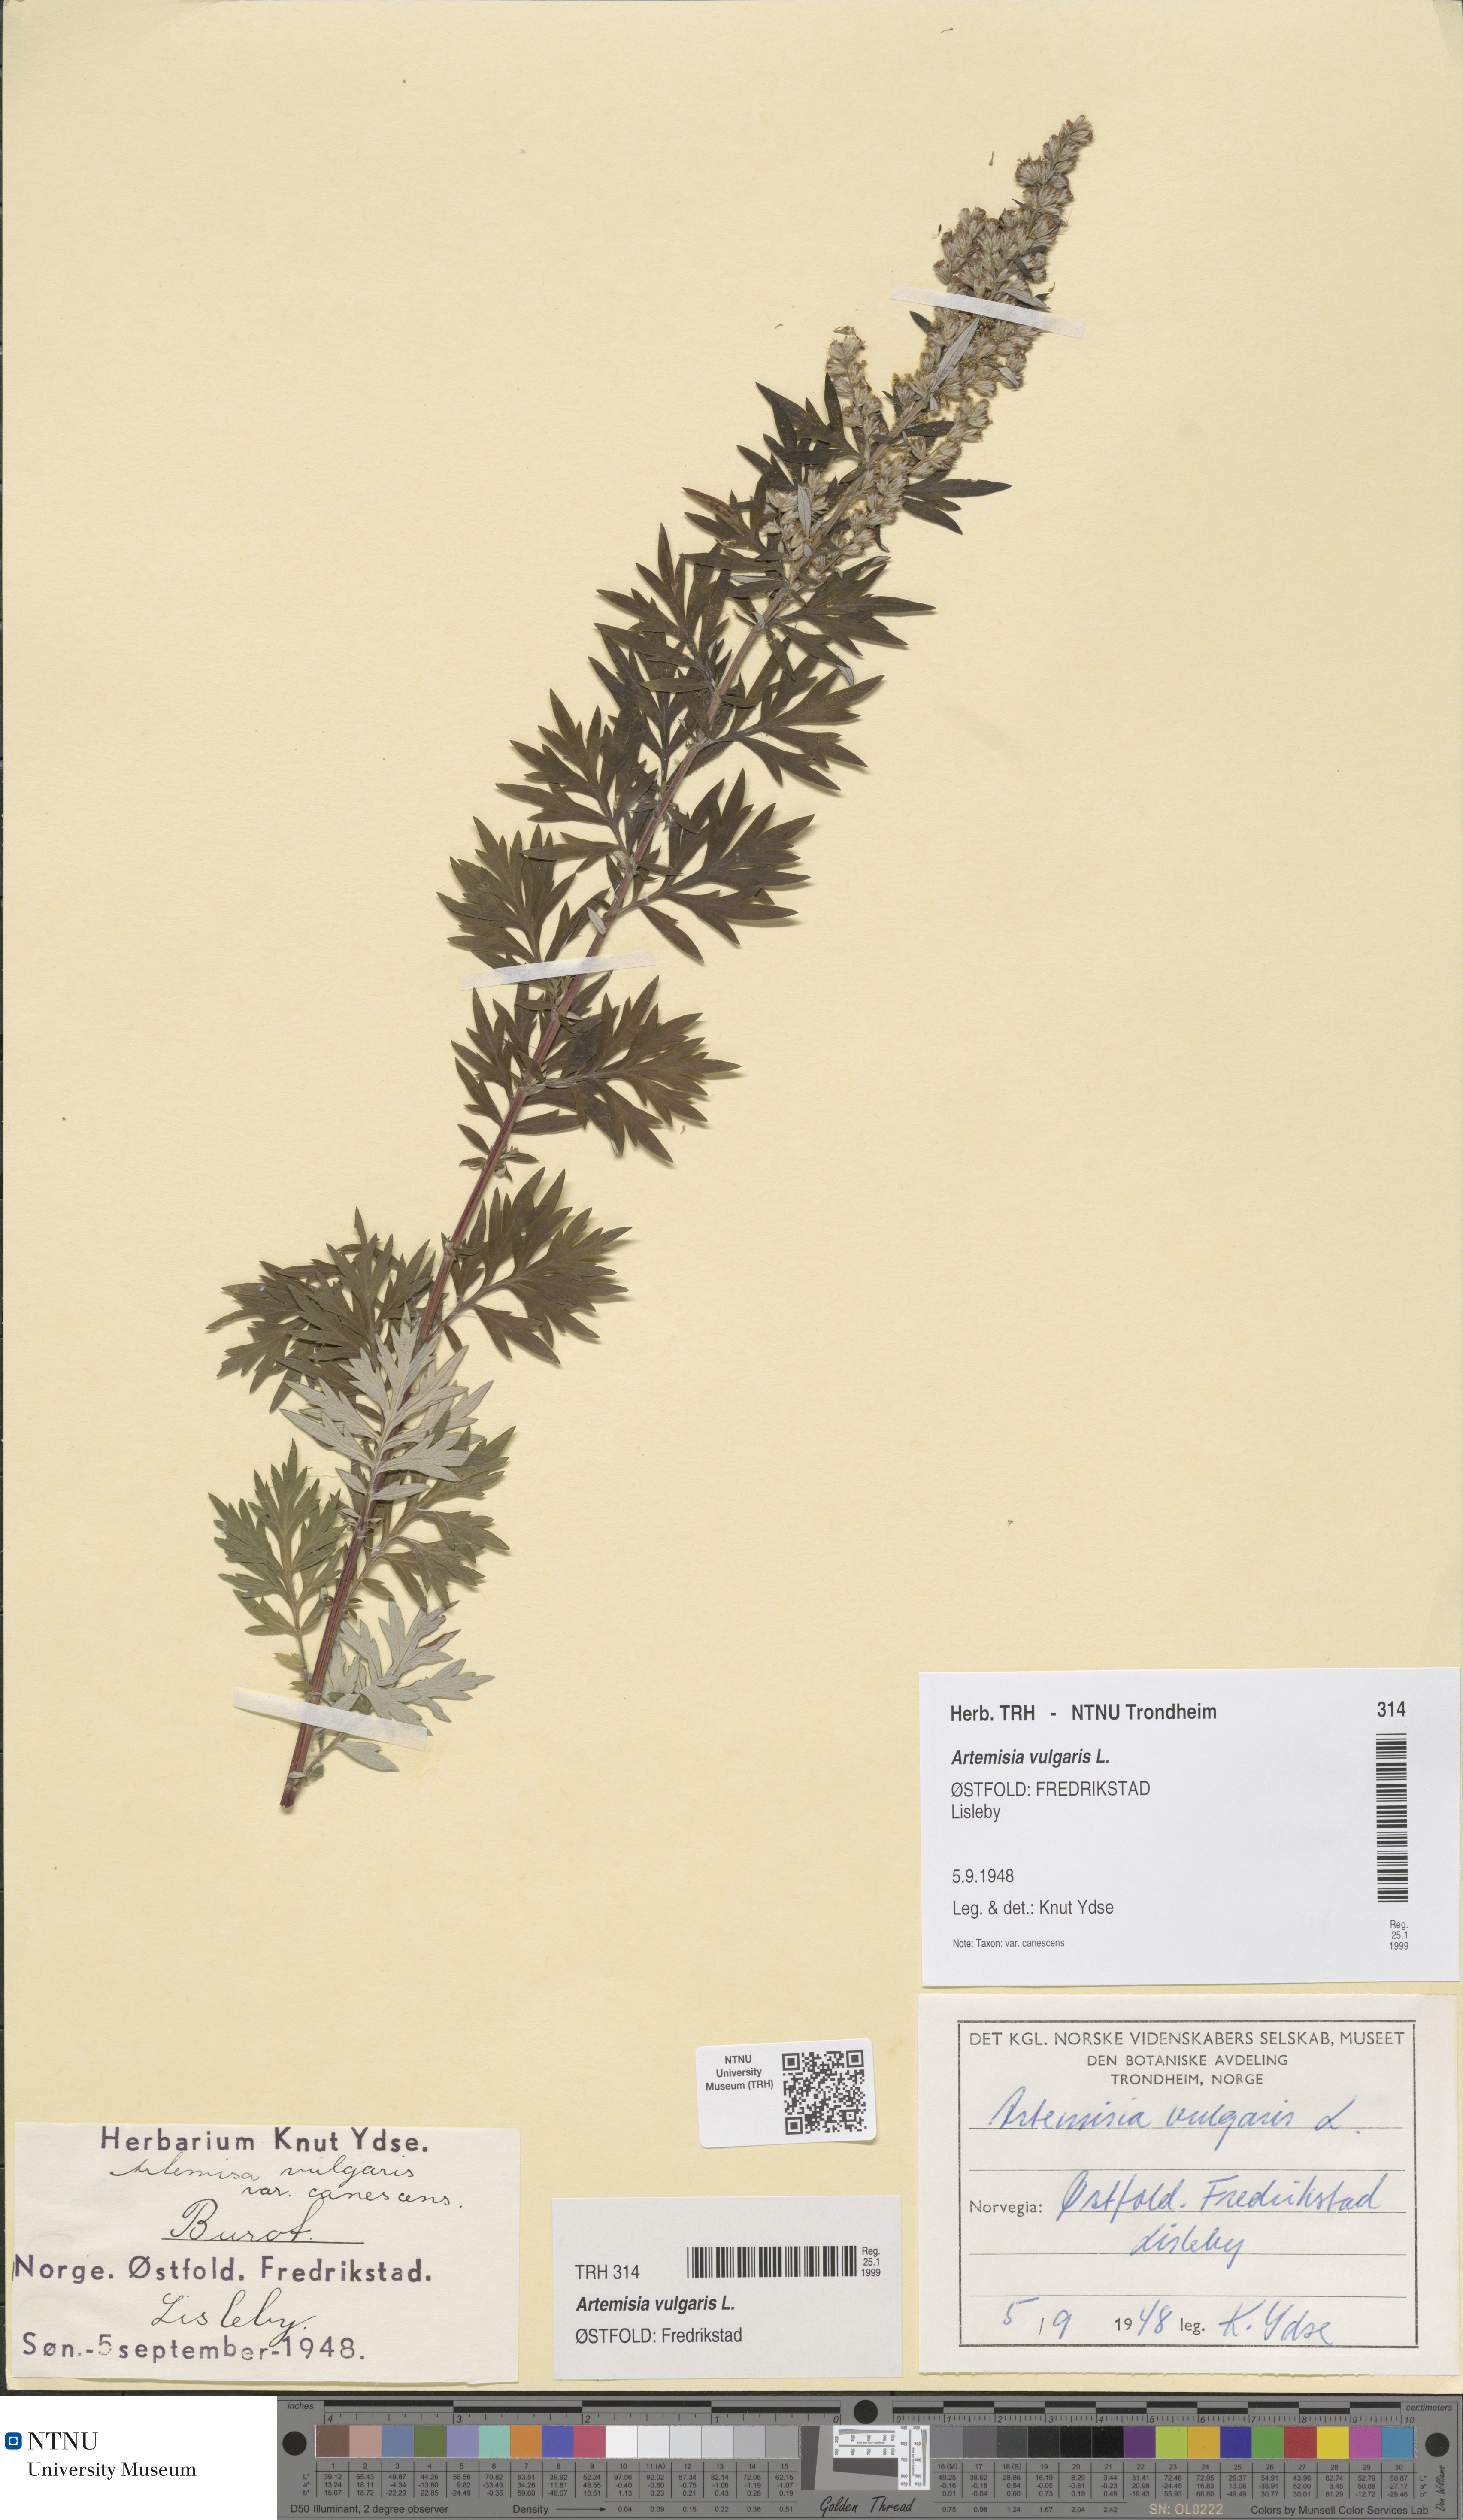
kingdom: Plantae
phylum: Tracheophyta
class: Magnoliopsida
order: Asterales
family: Asteraceae
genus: Artemisia
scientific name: Artemisia vulgaris
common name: Mugwort
